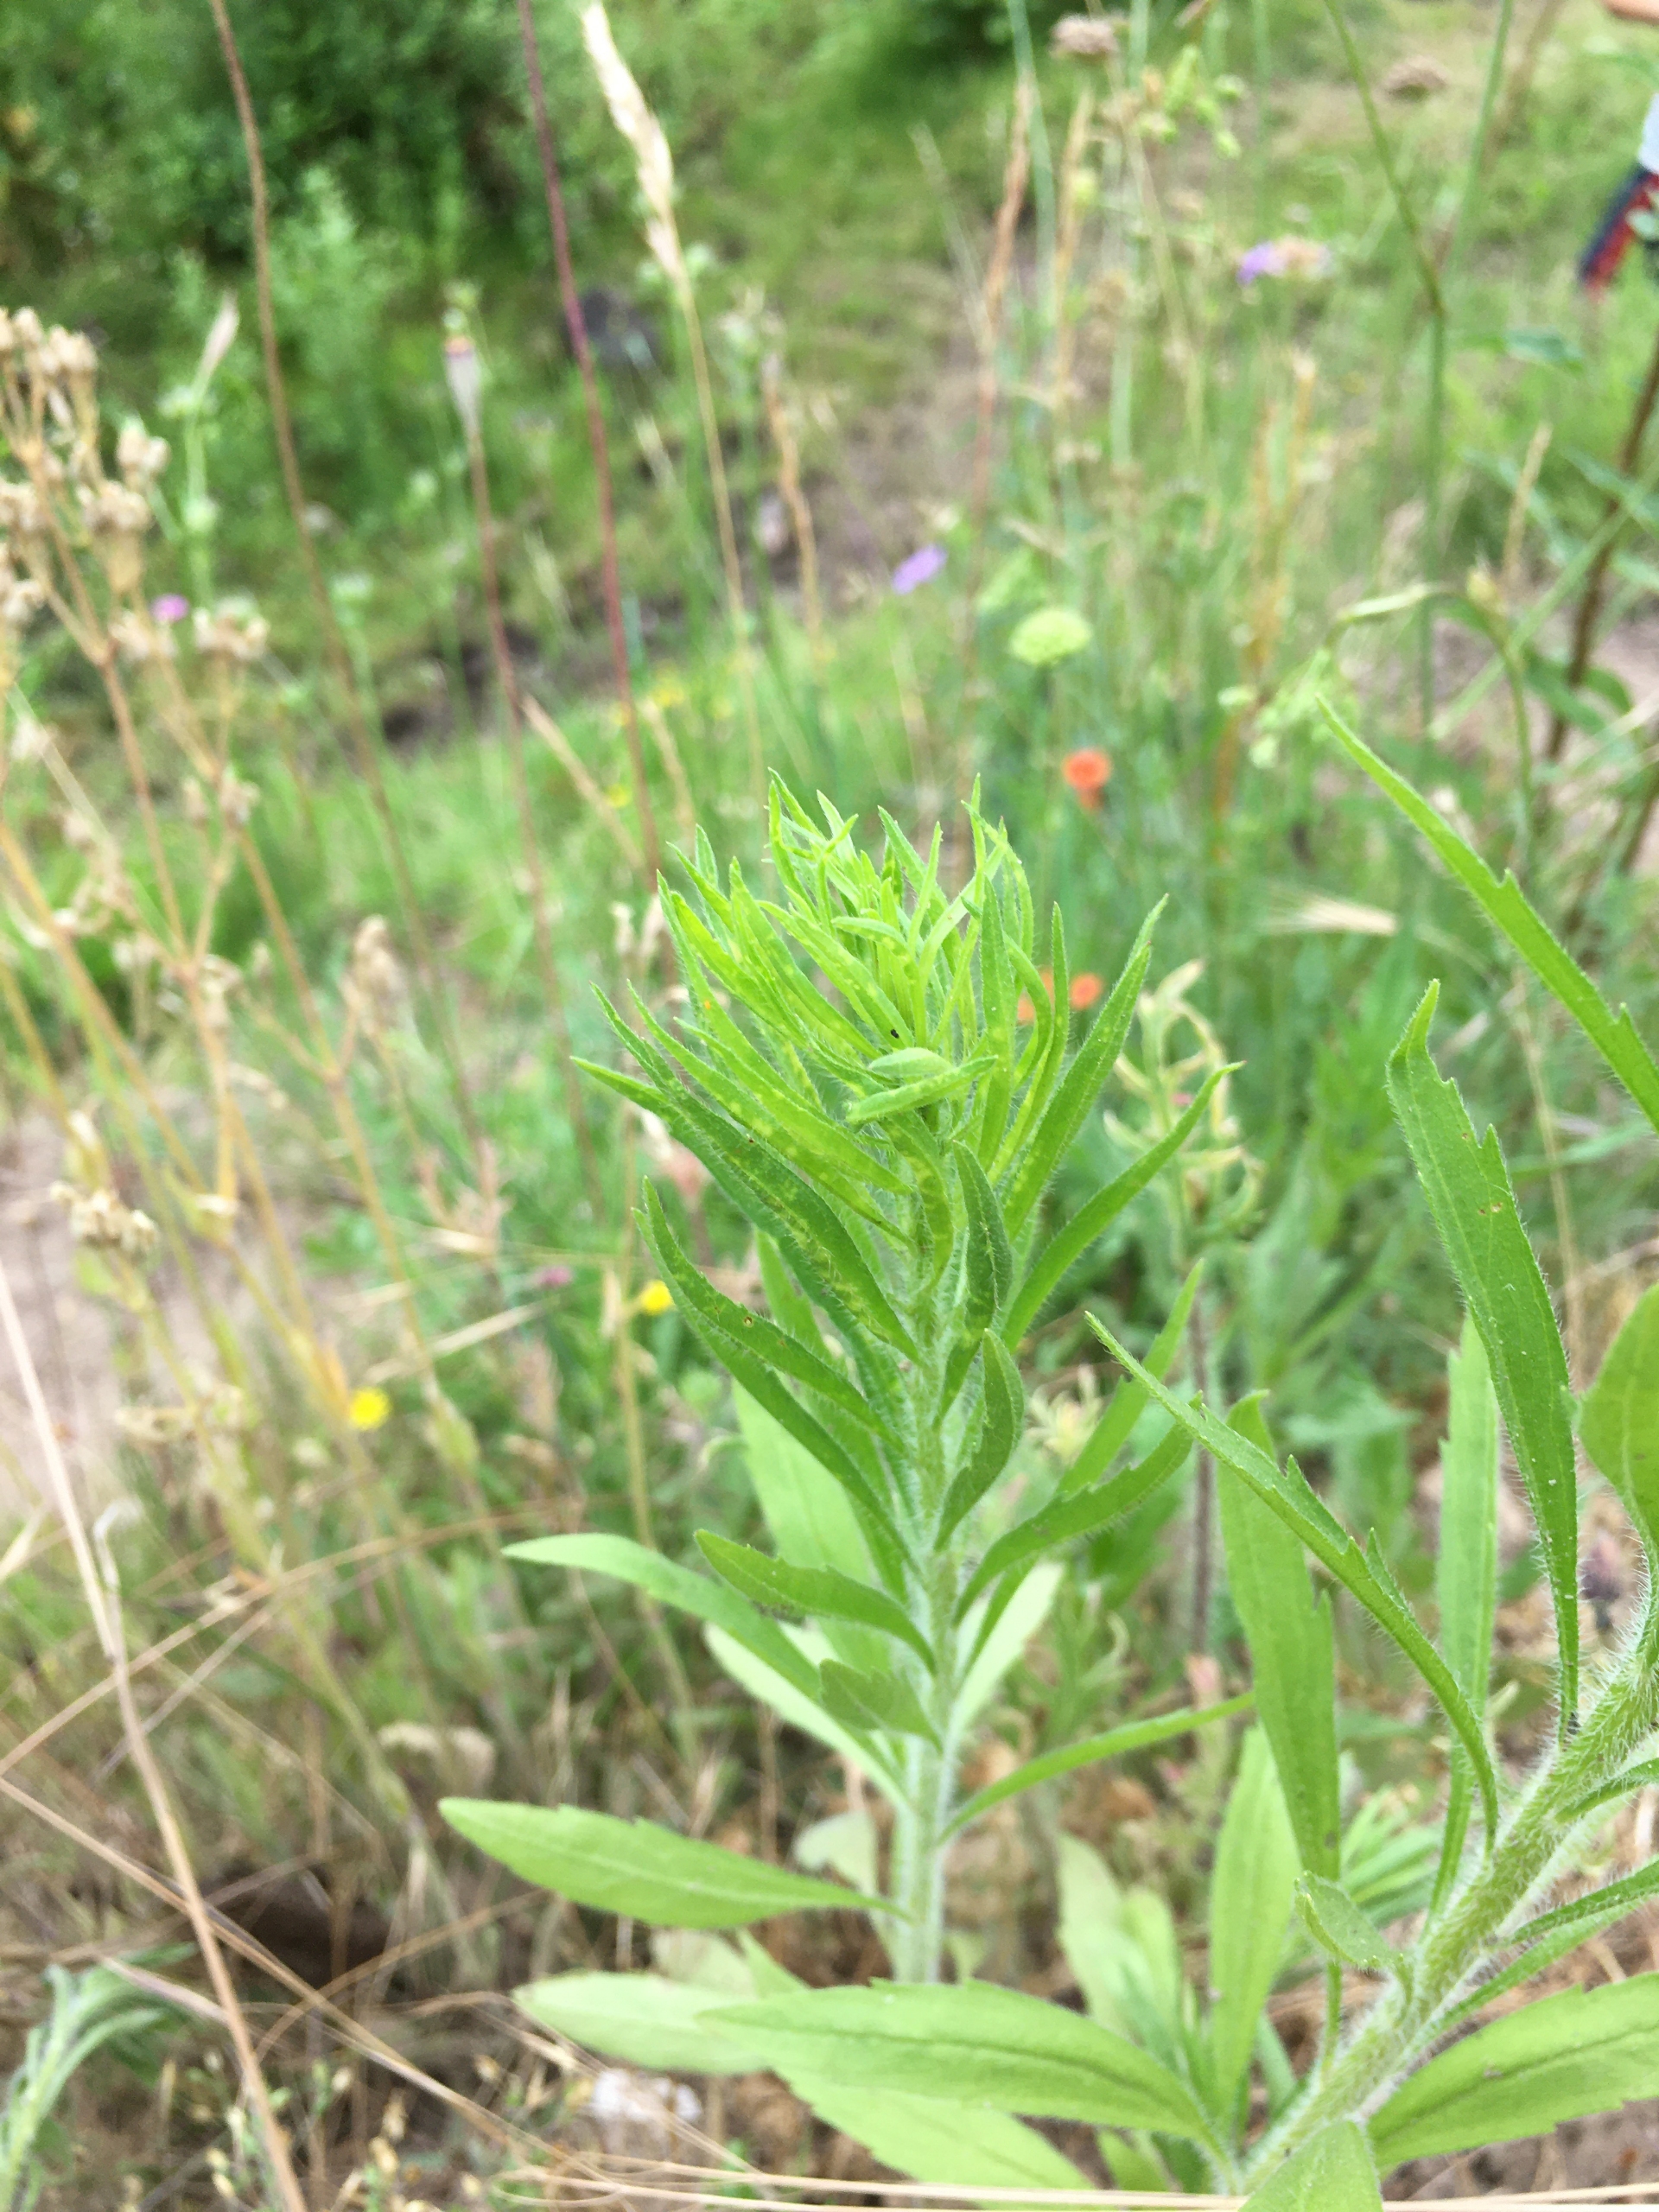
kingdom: Plantae
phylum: Tracheophyta
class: Magnoliopsida
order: Asterales
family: Asteraceae
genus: Erigeron
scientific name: Erigeron canadensis
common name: Kanadisk bakkestjerne
